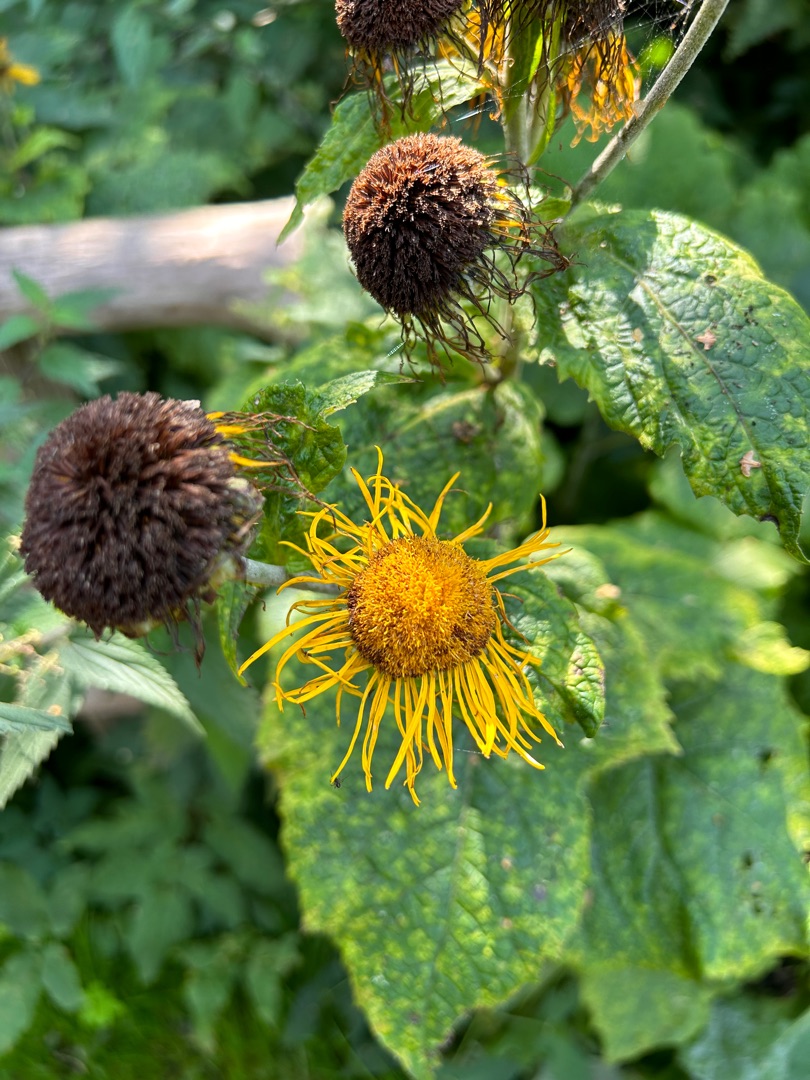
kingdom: Plantae
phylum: Tracheophyta
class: Magnoliopsida
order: Asterales
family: Asteraceae
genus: Telekia
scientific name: Telekia speciosa
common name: Tusindstråle
